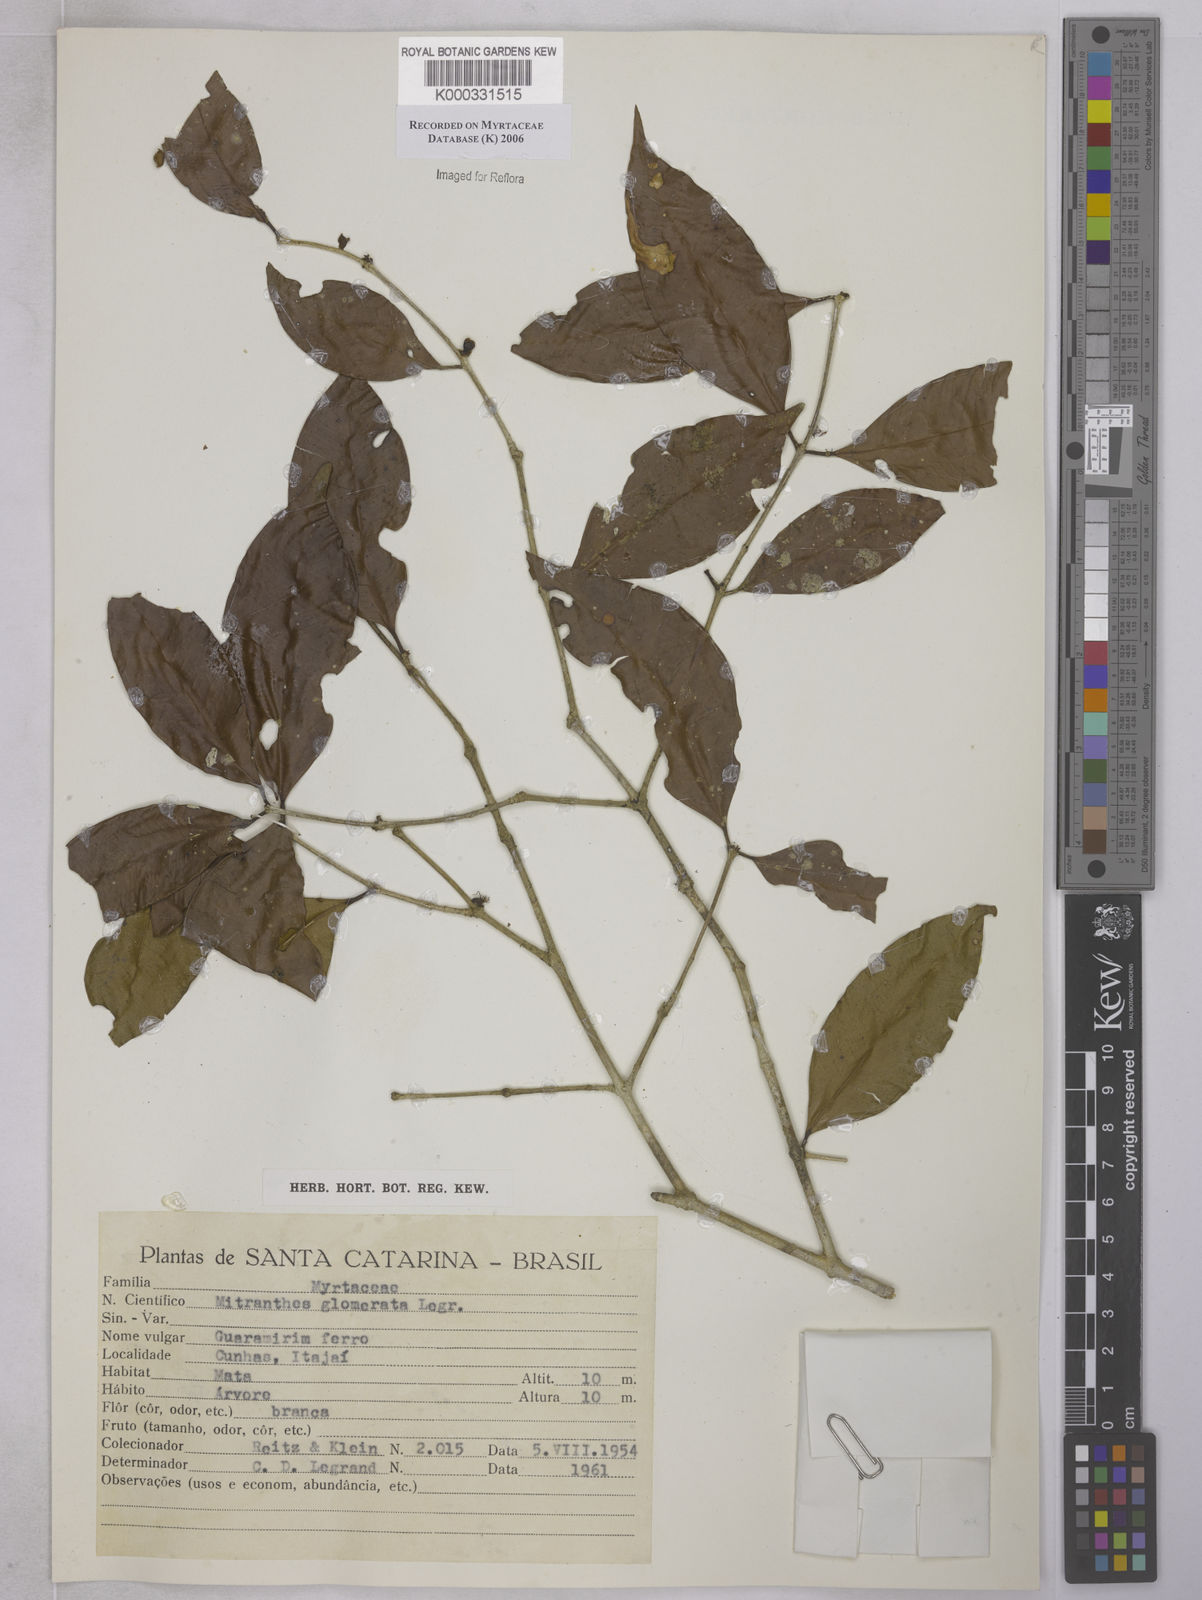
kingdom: Plantae
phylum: Tracheophyta
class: Magnoliopsida
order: Myrtales
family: Myrtaceae
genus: Neomitranthes
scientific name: Neomitranthes glomerata
